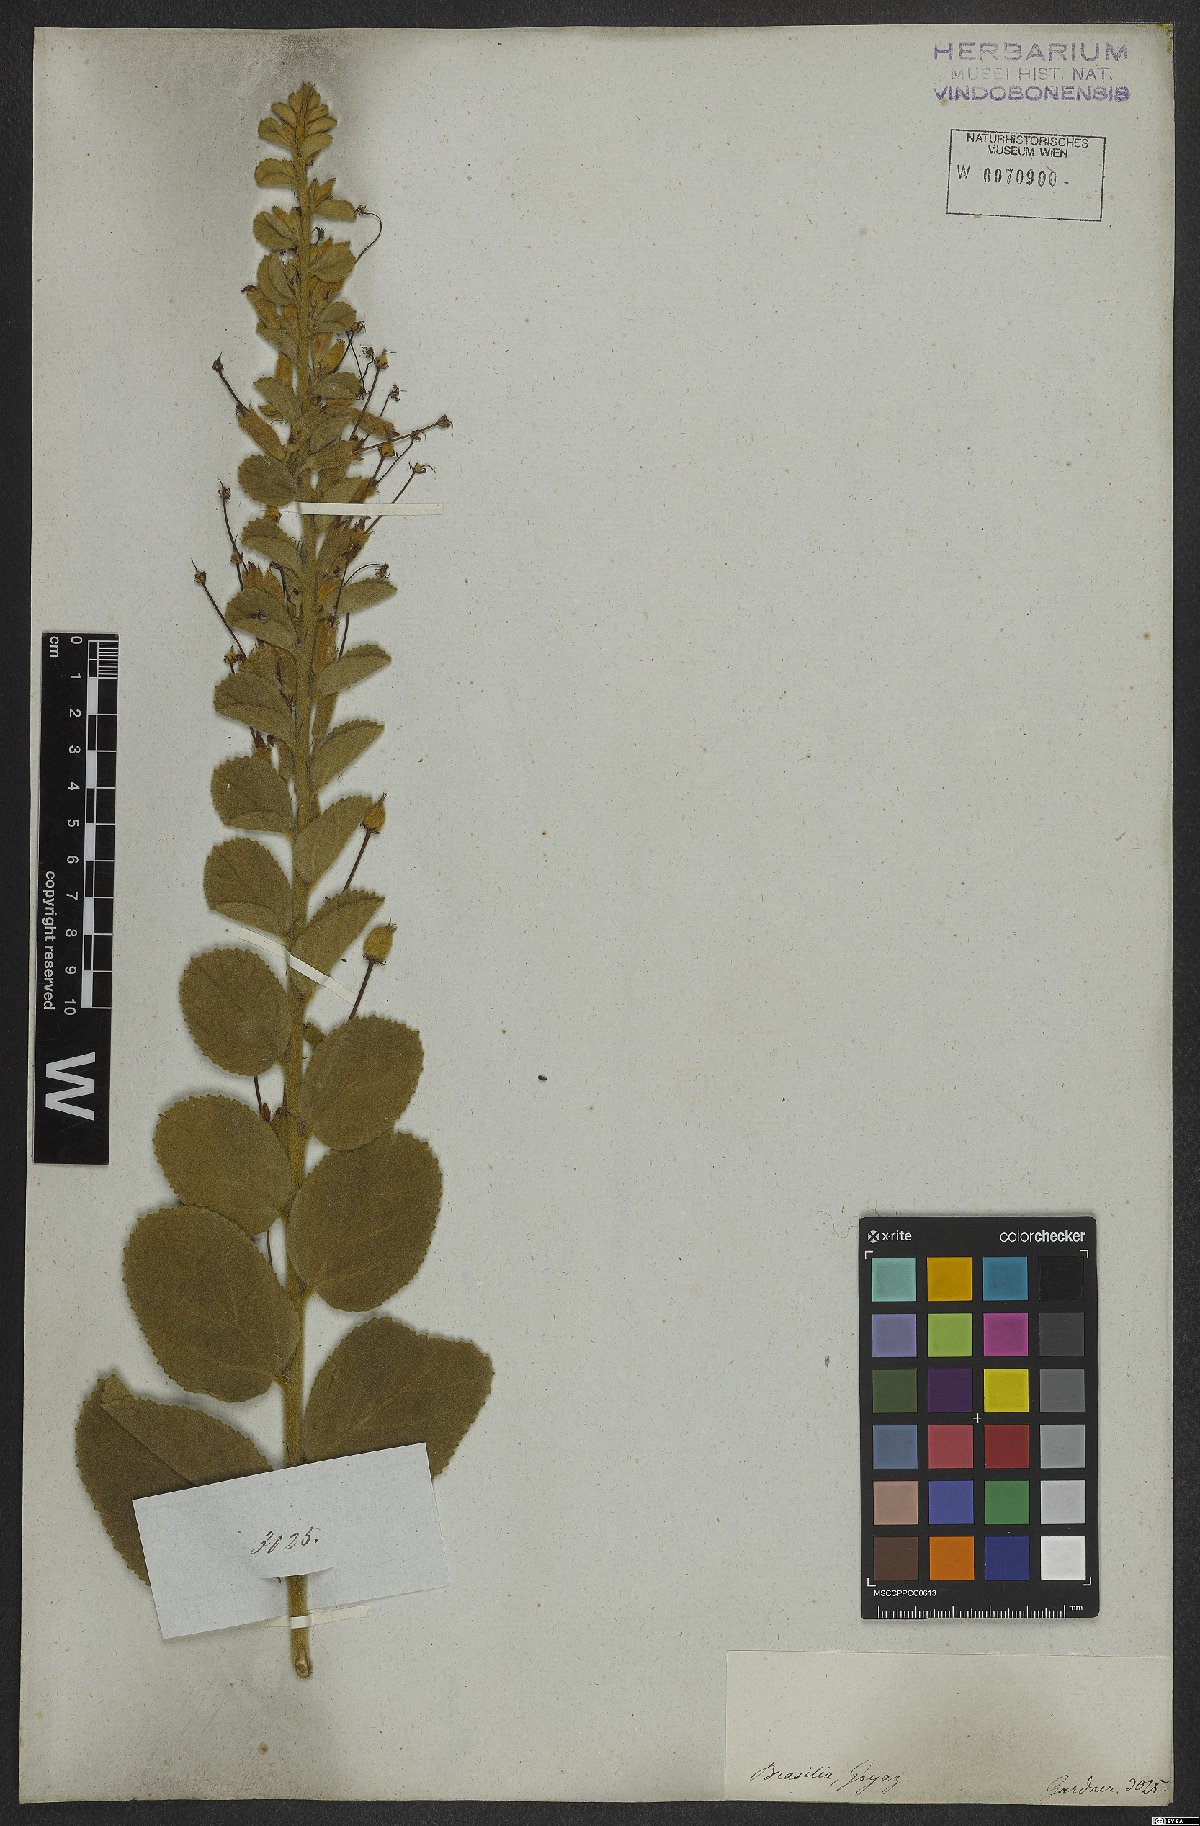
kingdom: Plantae
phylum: Tracheophyta
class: Magnoliopsida
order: Malvales
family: Malvaceae
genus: Helicteres
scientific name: Helicteres sacarolha
